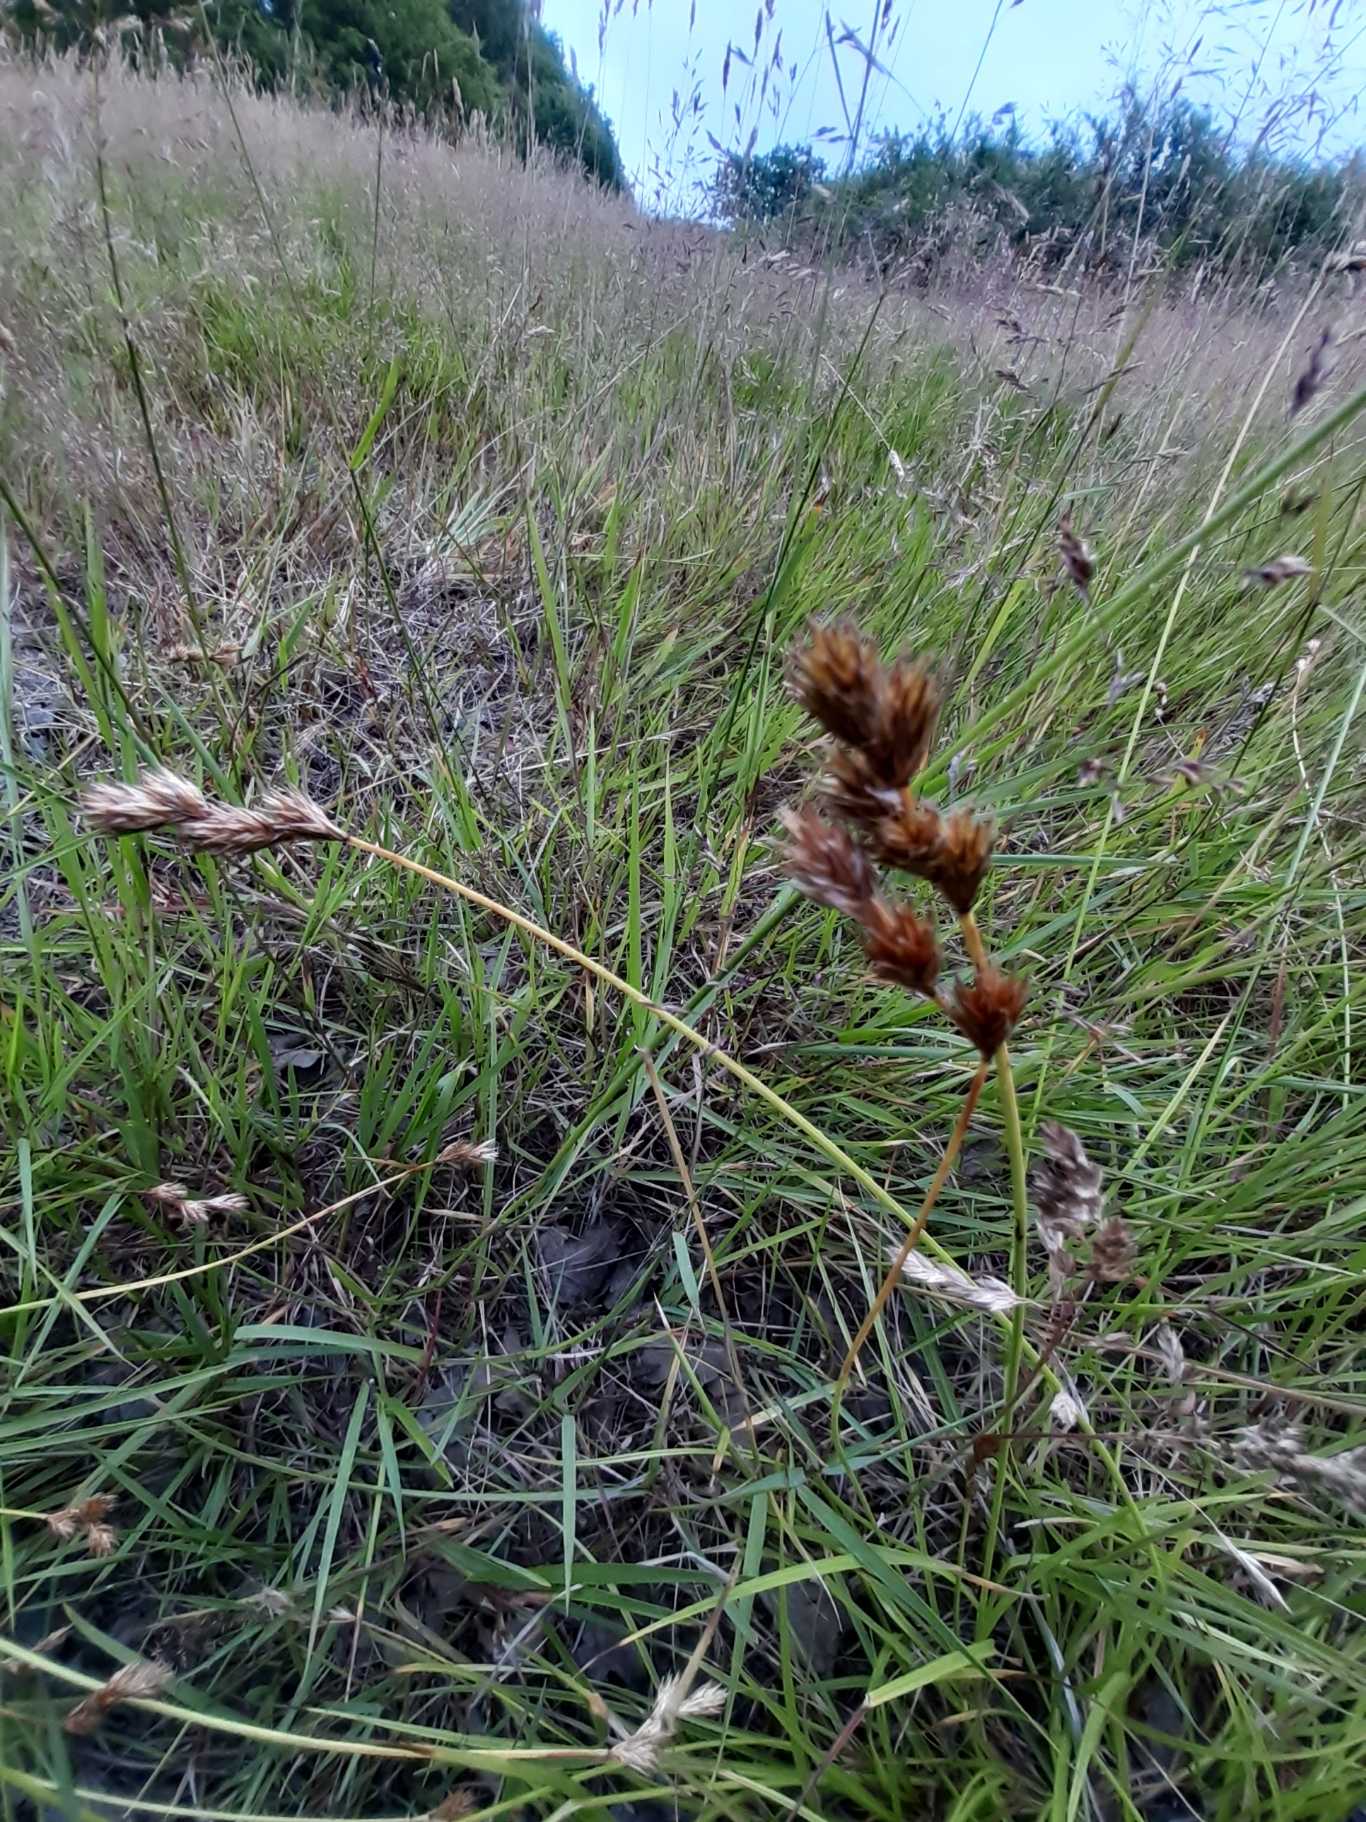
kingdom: Plantae
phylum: Tracheophyta
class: Liliopsida
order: Poales
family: Cyperaceae
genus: Carex
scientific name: Carex leporina
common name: Hare-star
